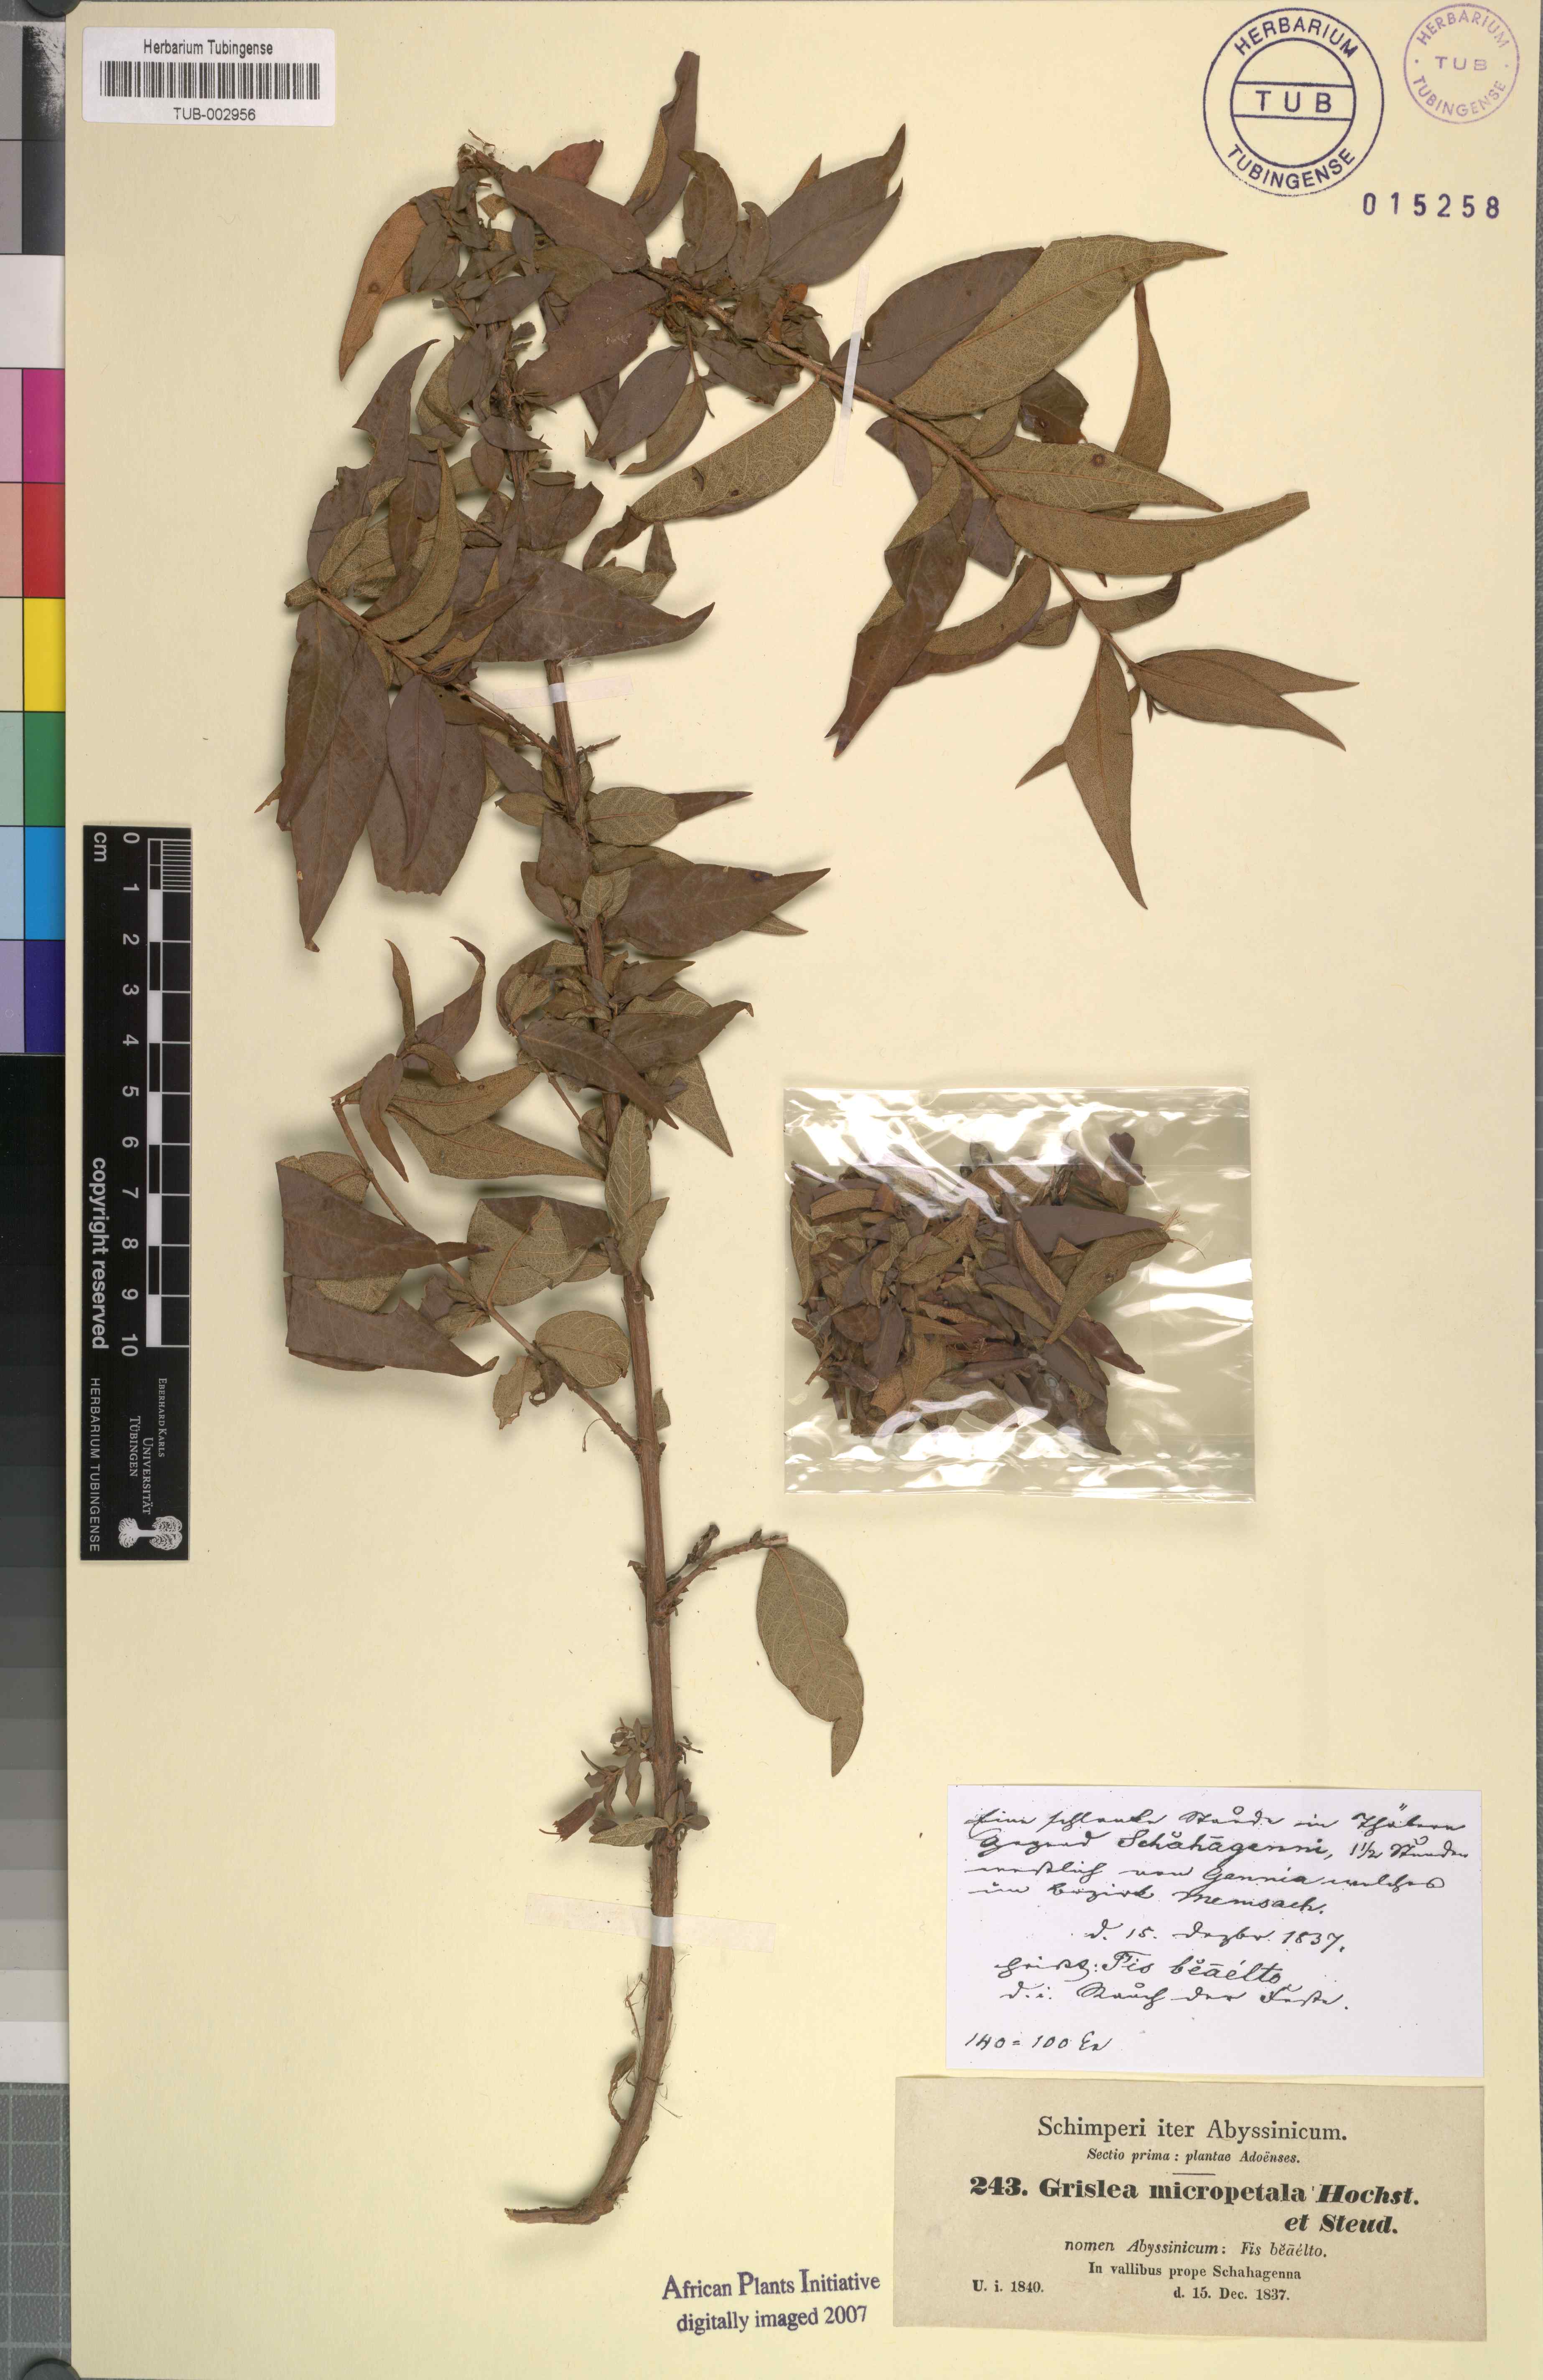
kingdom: Plantae
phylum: Tracheophyta
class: Magnoliopsida
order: Myrtales
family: Lythraceae
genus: Woodfordia
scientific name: Woodfordia uniflora
